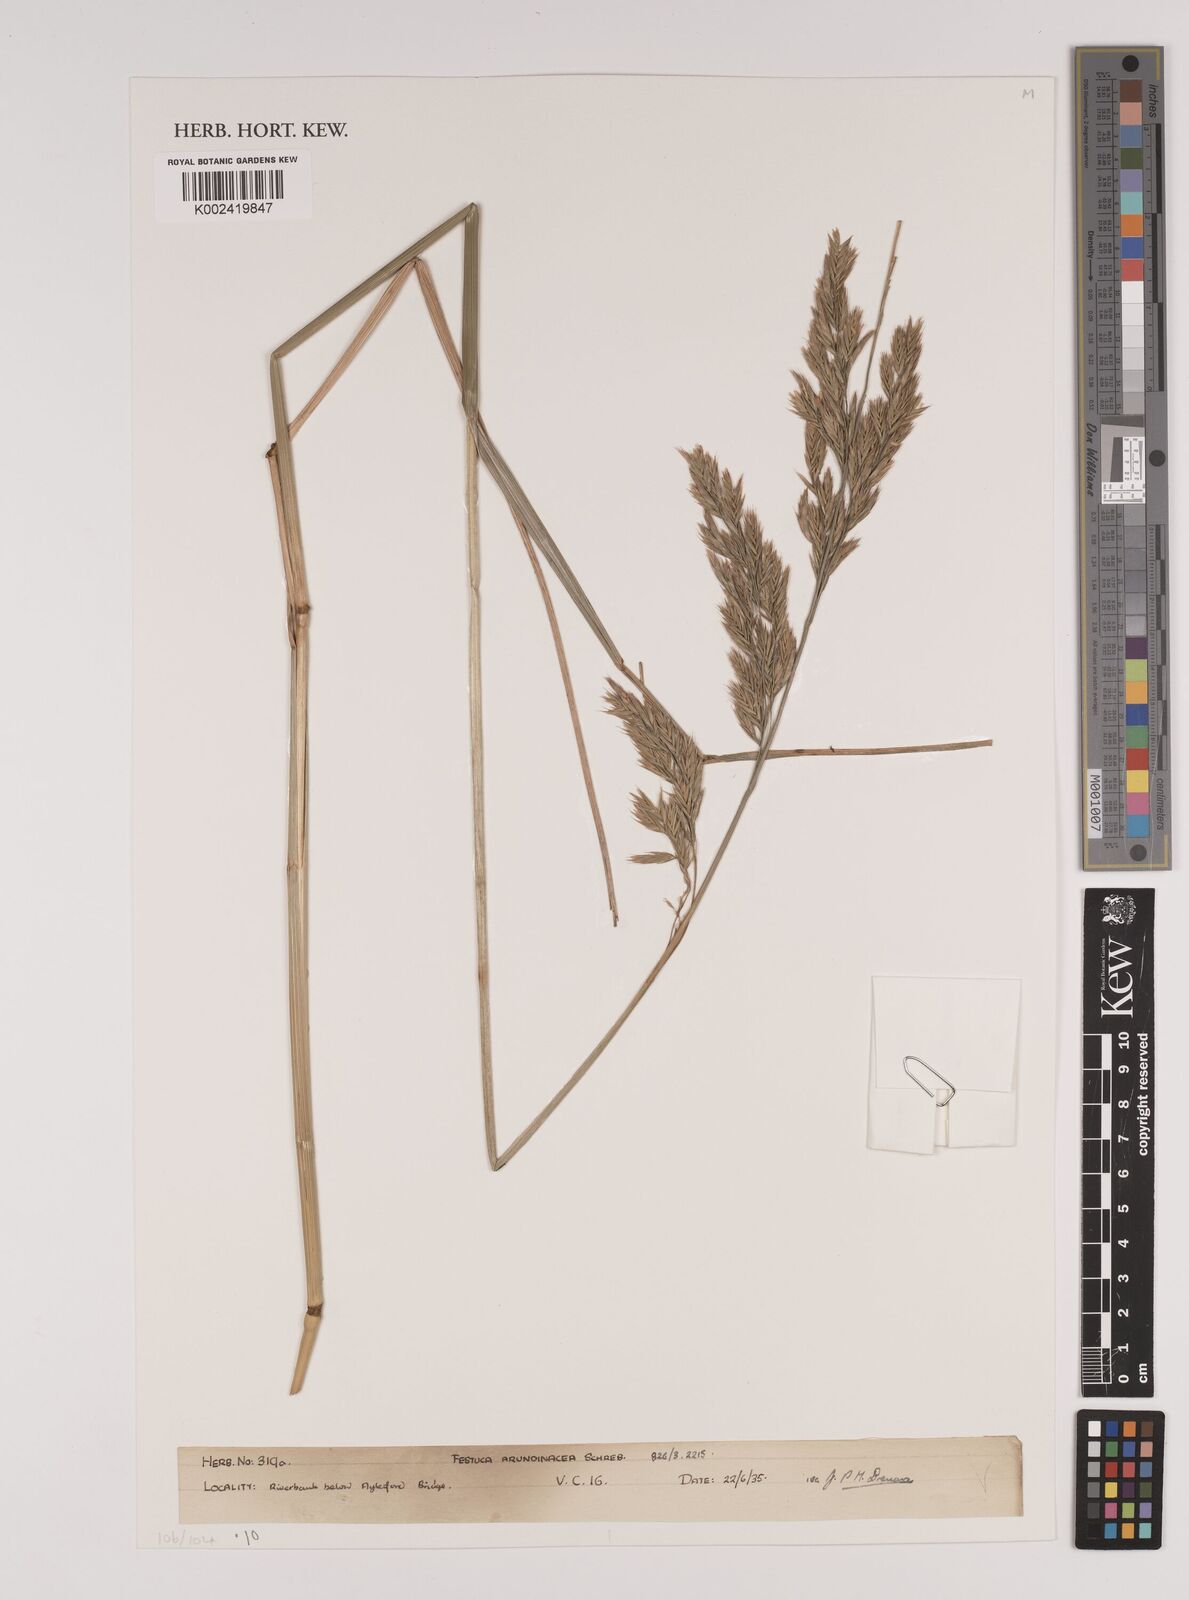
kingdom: Plantae
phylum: Tracheophyta
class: Liliopsida
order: Poales
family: Poaceae
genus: Lolium
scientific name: Lolium arundinaceum
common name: Reed fescue
